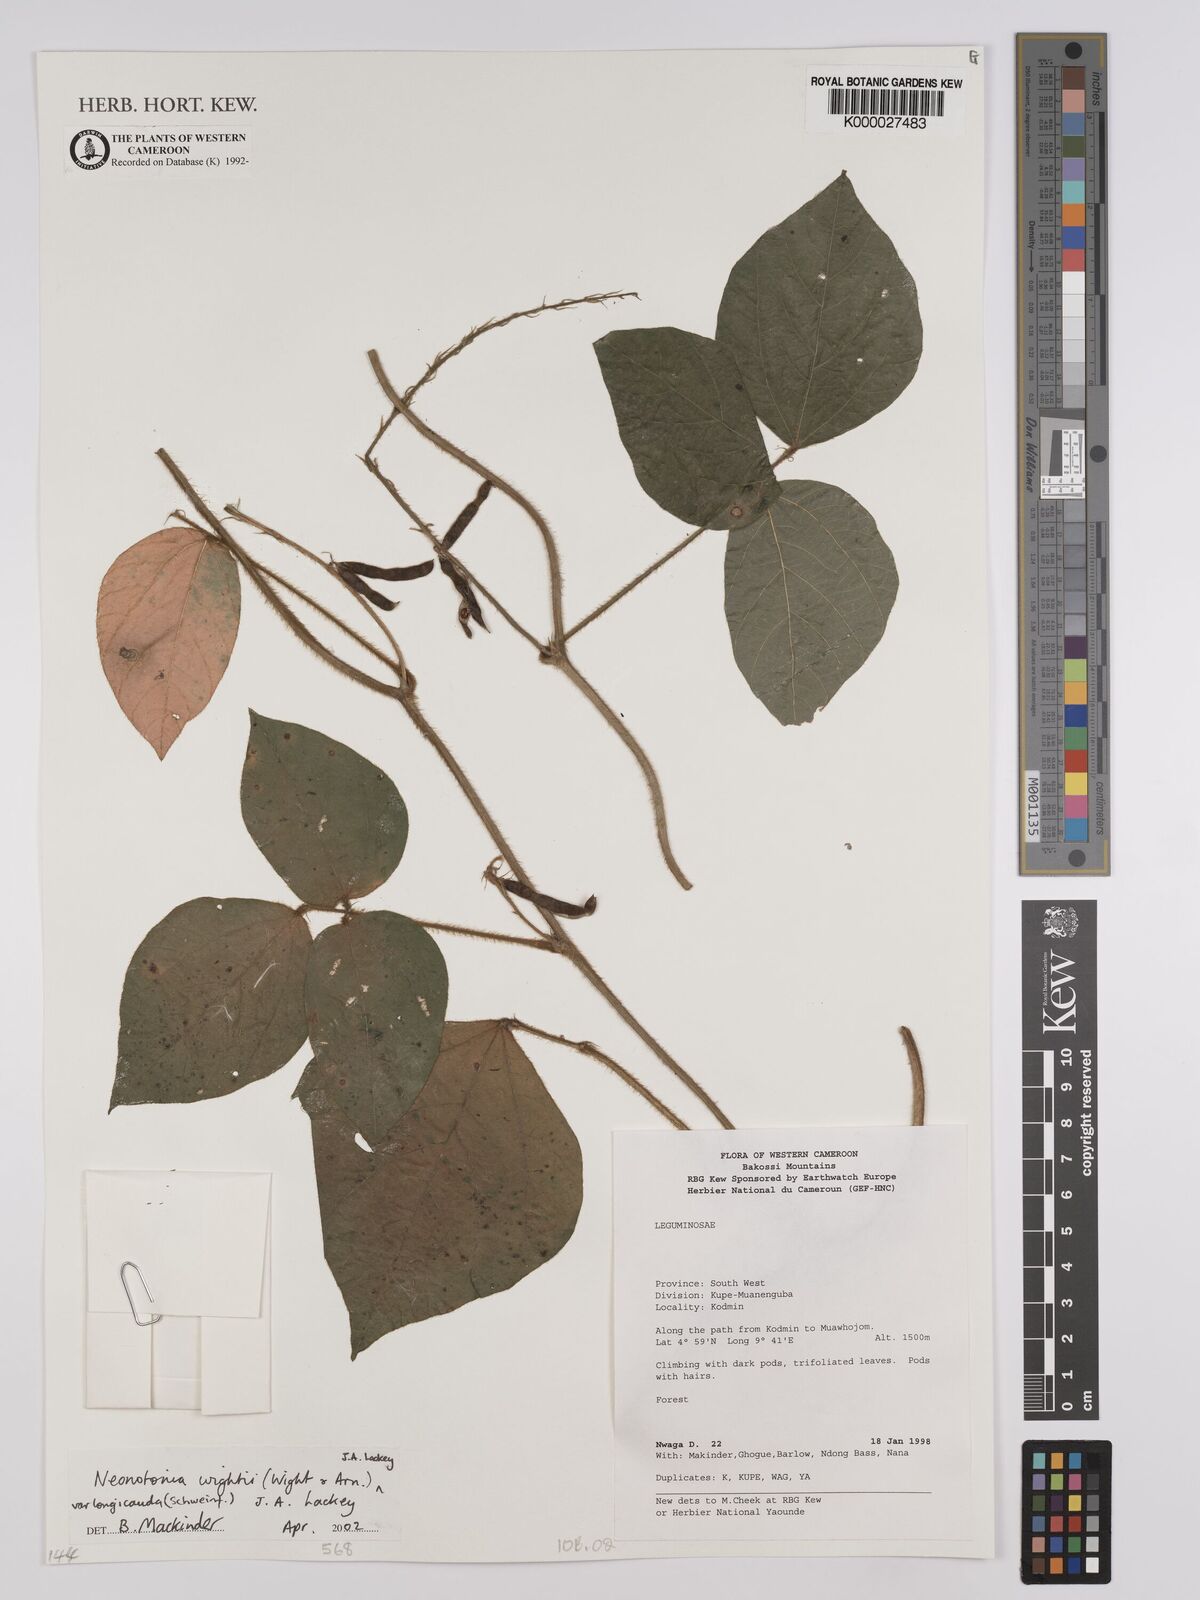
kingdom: Plantae
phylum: Tracheophyta
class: Magnoliopsida
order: Fabales
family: Fabaceae
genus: Neonotonia
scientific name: Neonotonia wightii
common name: Perennial soybean
